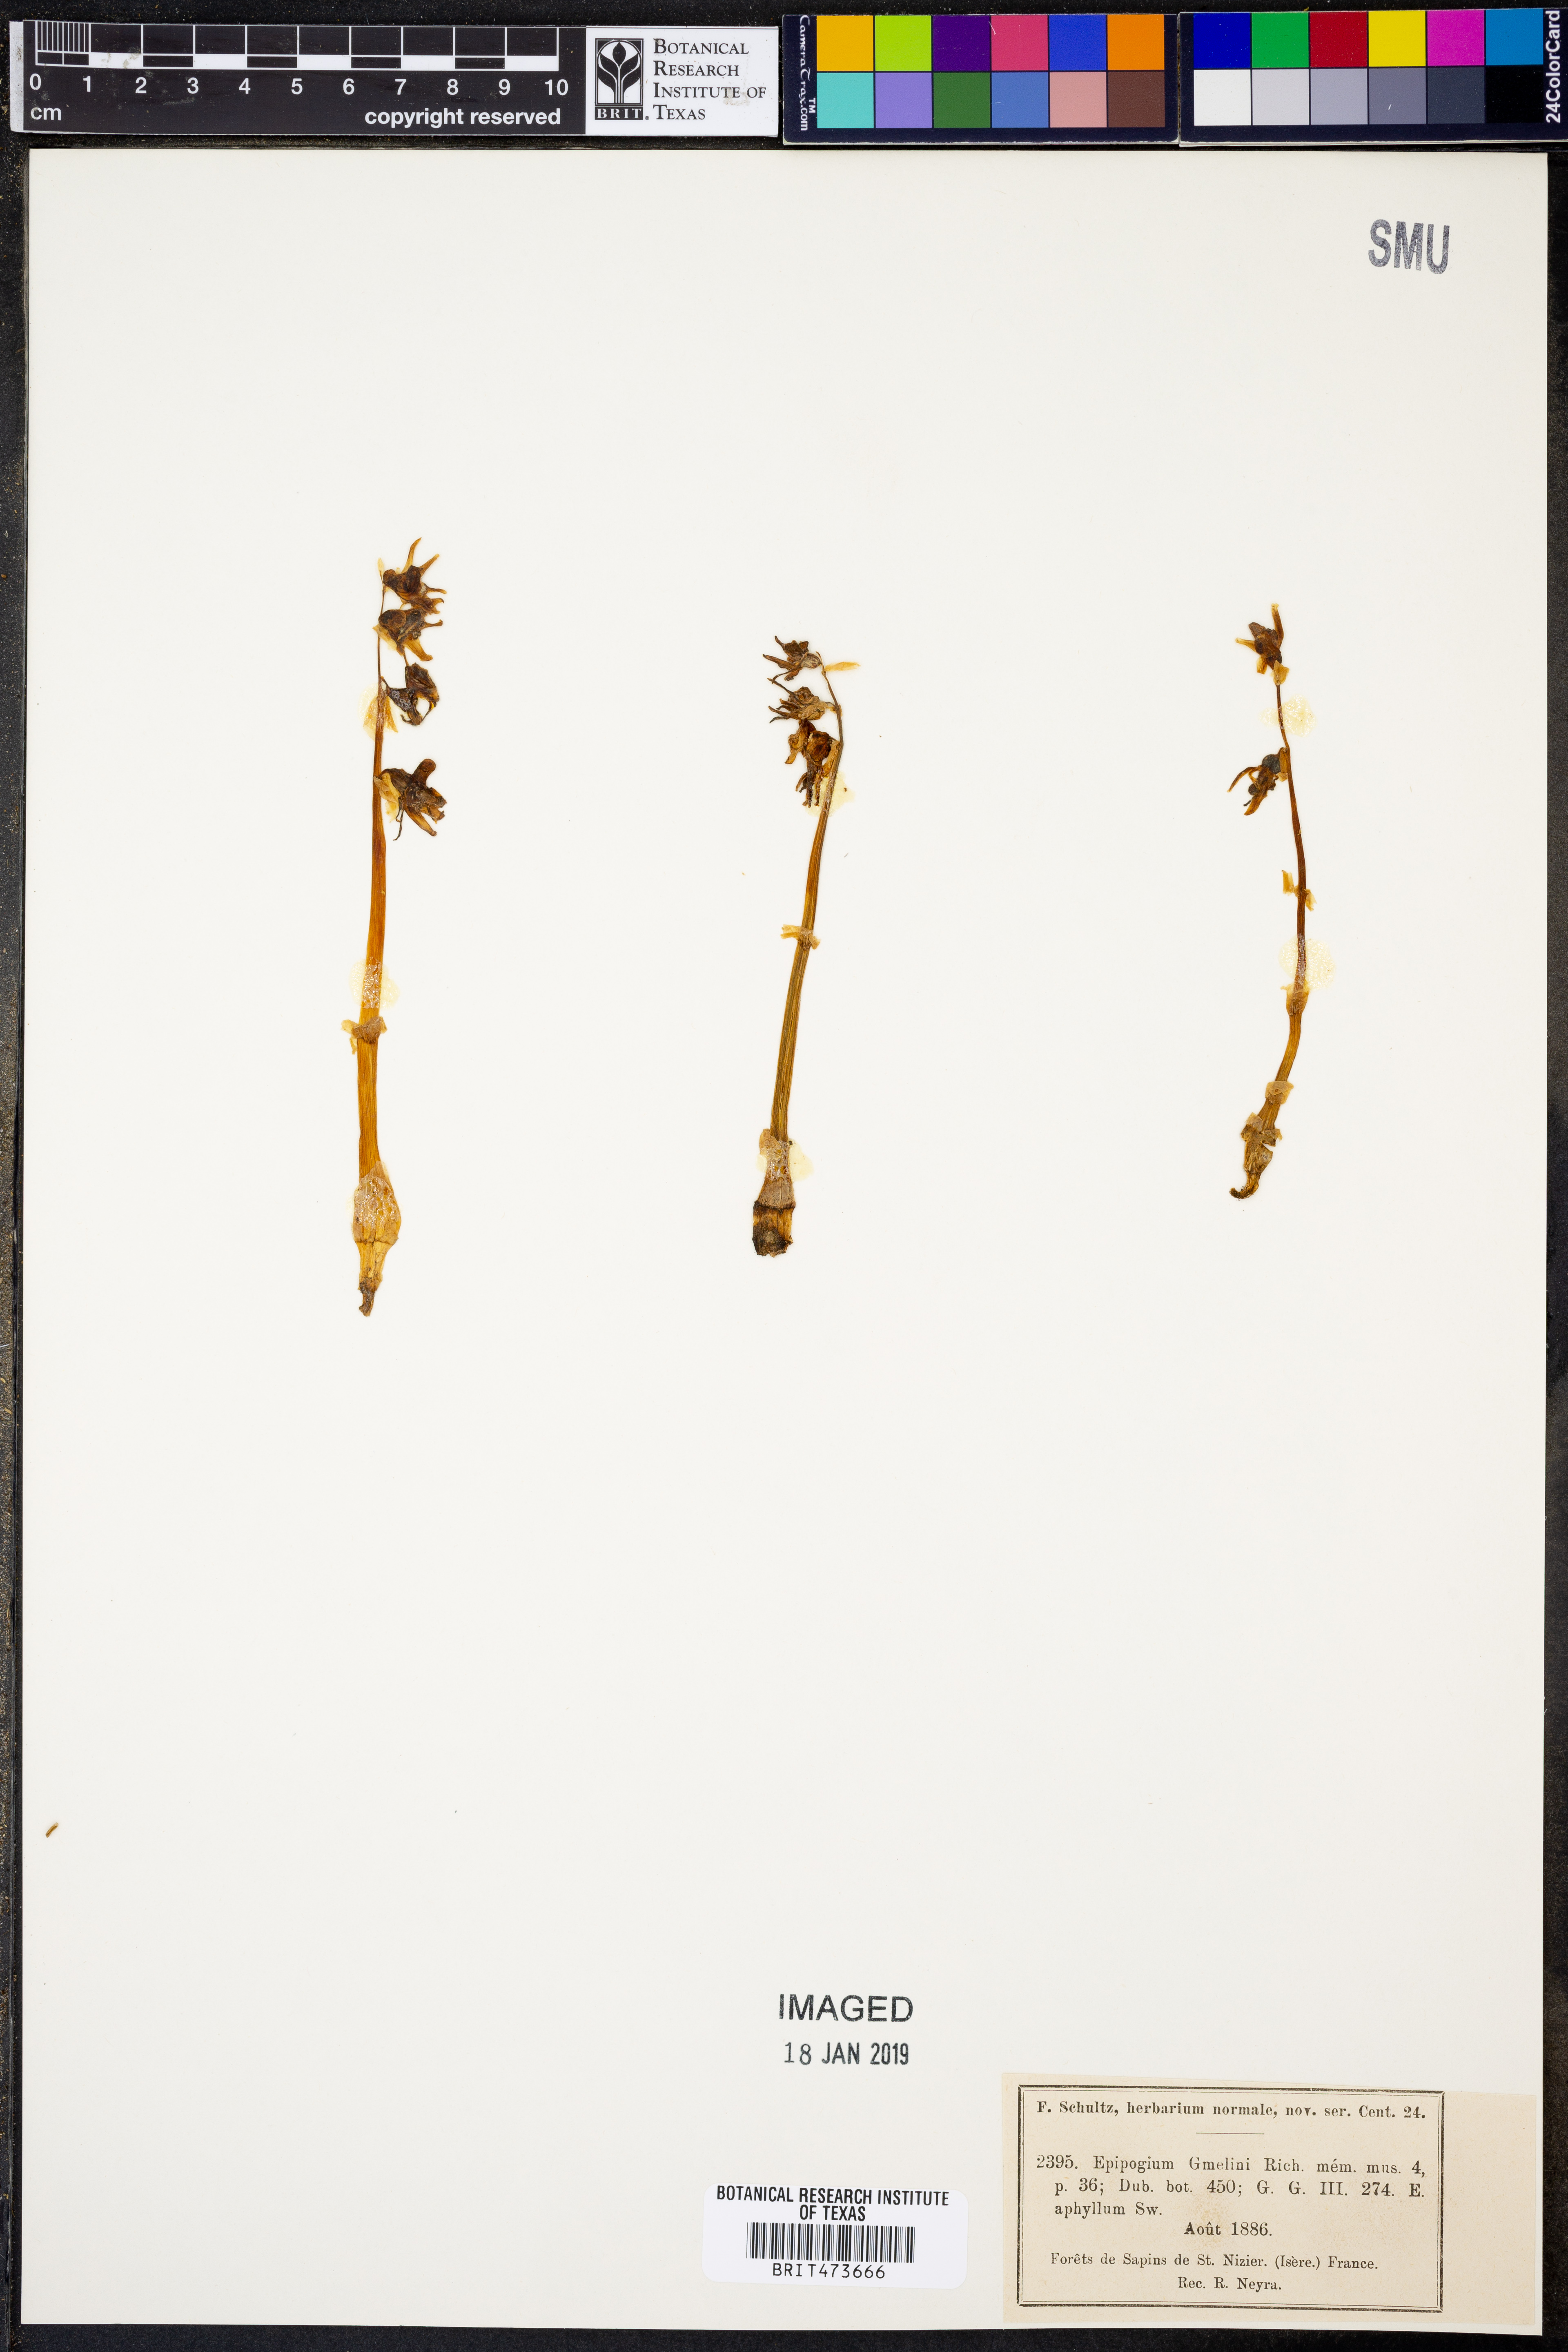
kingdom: Plantae
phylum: Tracheophyta
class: Liliopsida
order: Asparagales
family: Orchidaceae
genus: Epipogium
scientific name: Epipogium aphyllum
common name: Ghost orchid
